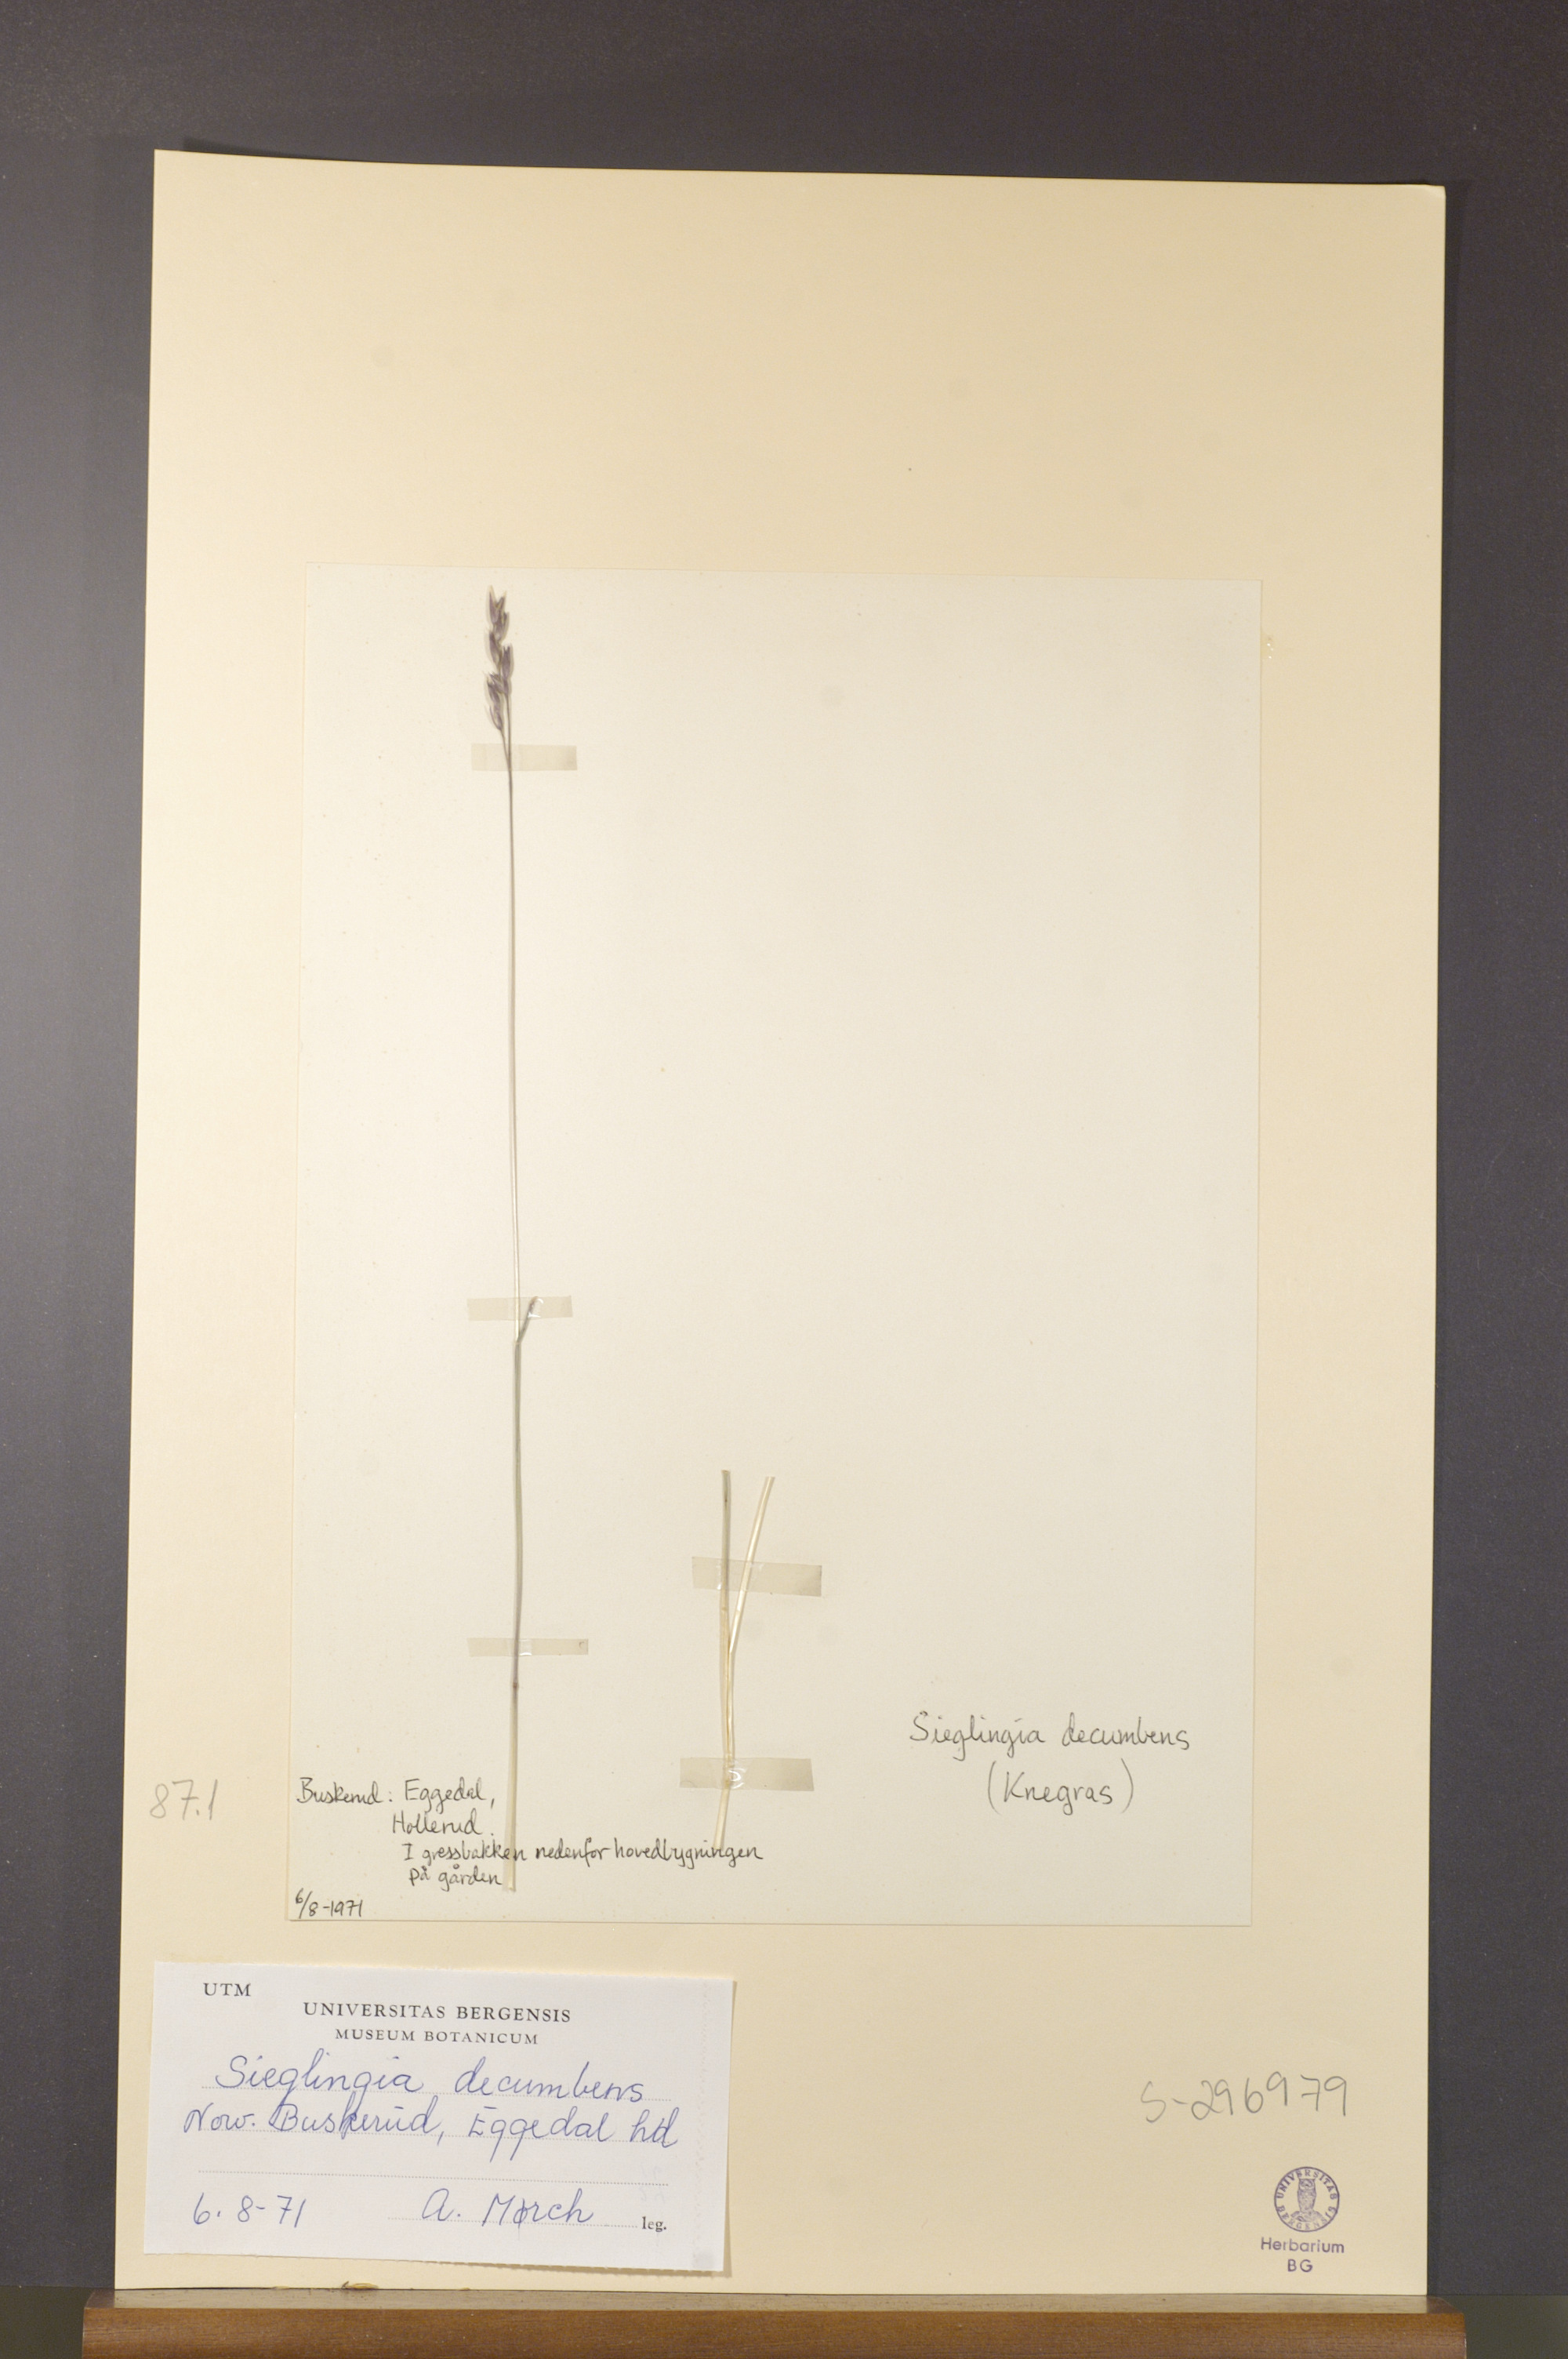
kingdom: Plantae
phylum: Tracheophyta
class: Liliopsida
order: Poales
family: Poaceae
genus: Danthonia
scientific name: Danthonia decumbens
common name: Common heathgrass
